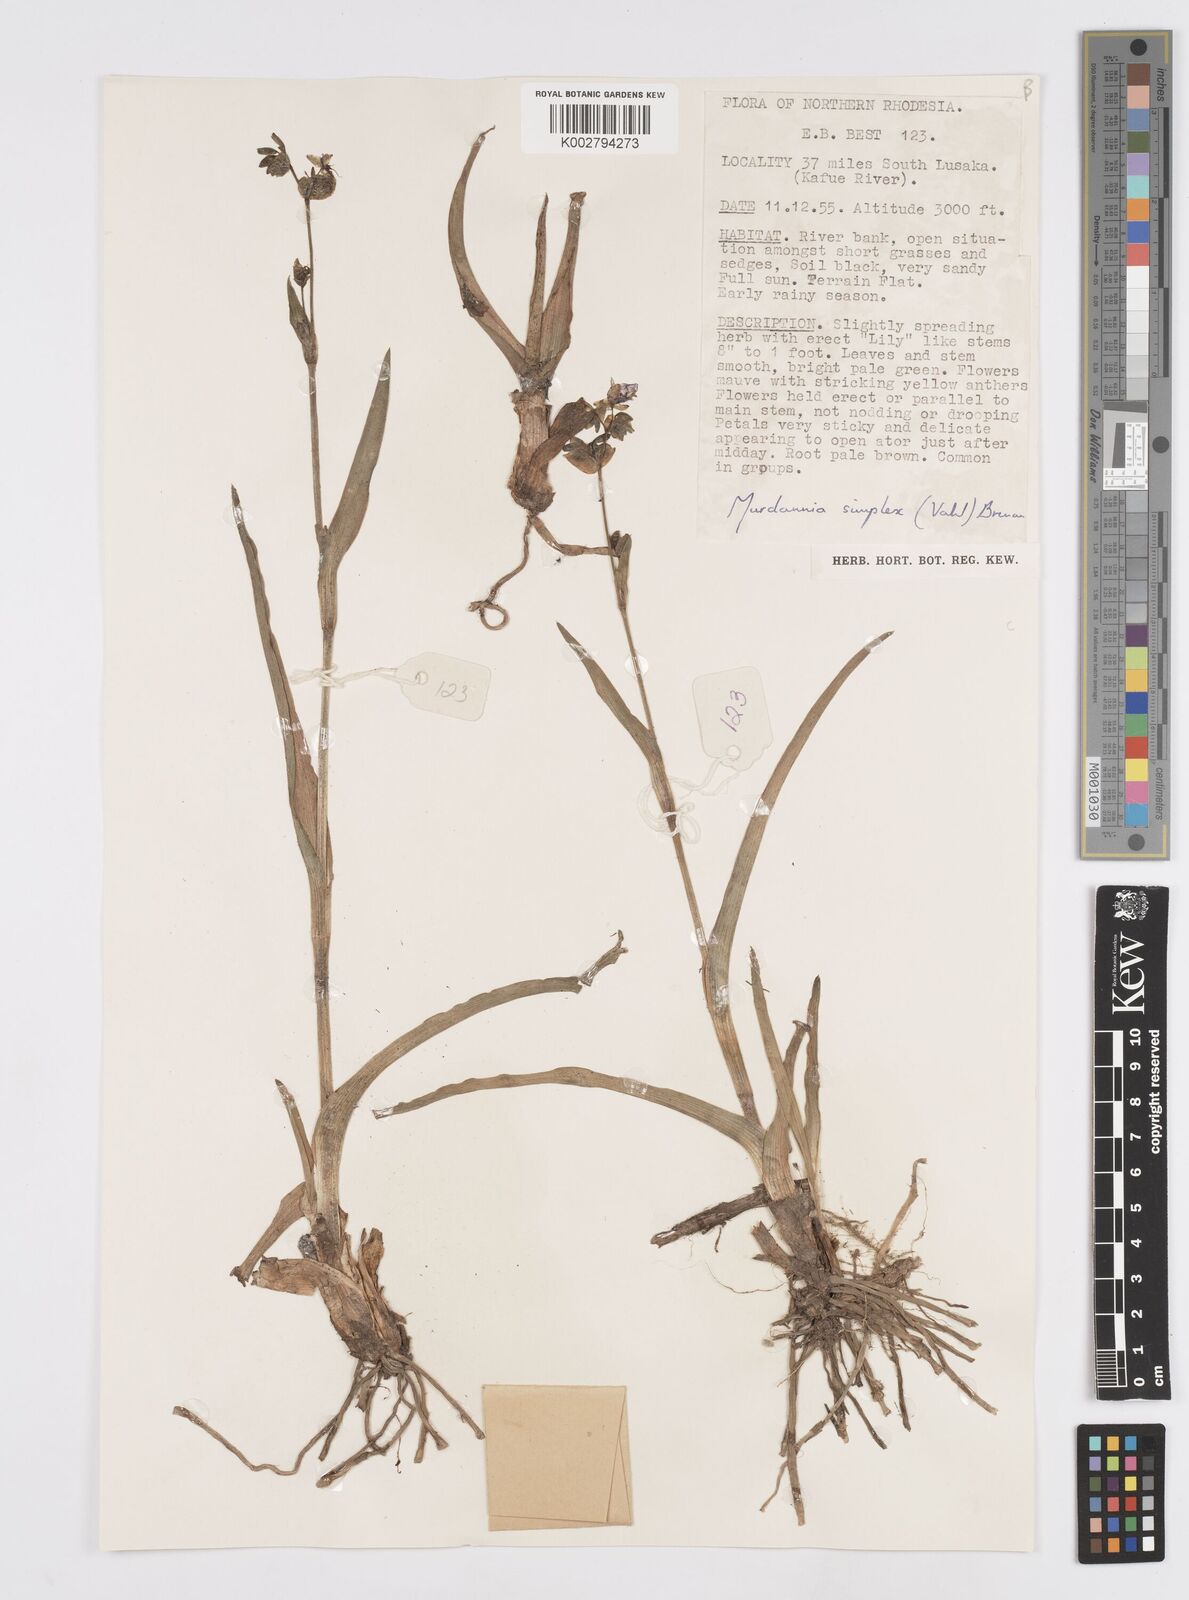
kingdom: Plantae
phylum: Tracheophyta
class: Liliopsida
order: Commelinales
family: Commelinaceae
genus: Murdannia
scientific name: Murdannia simplex
